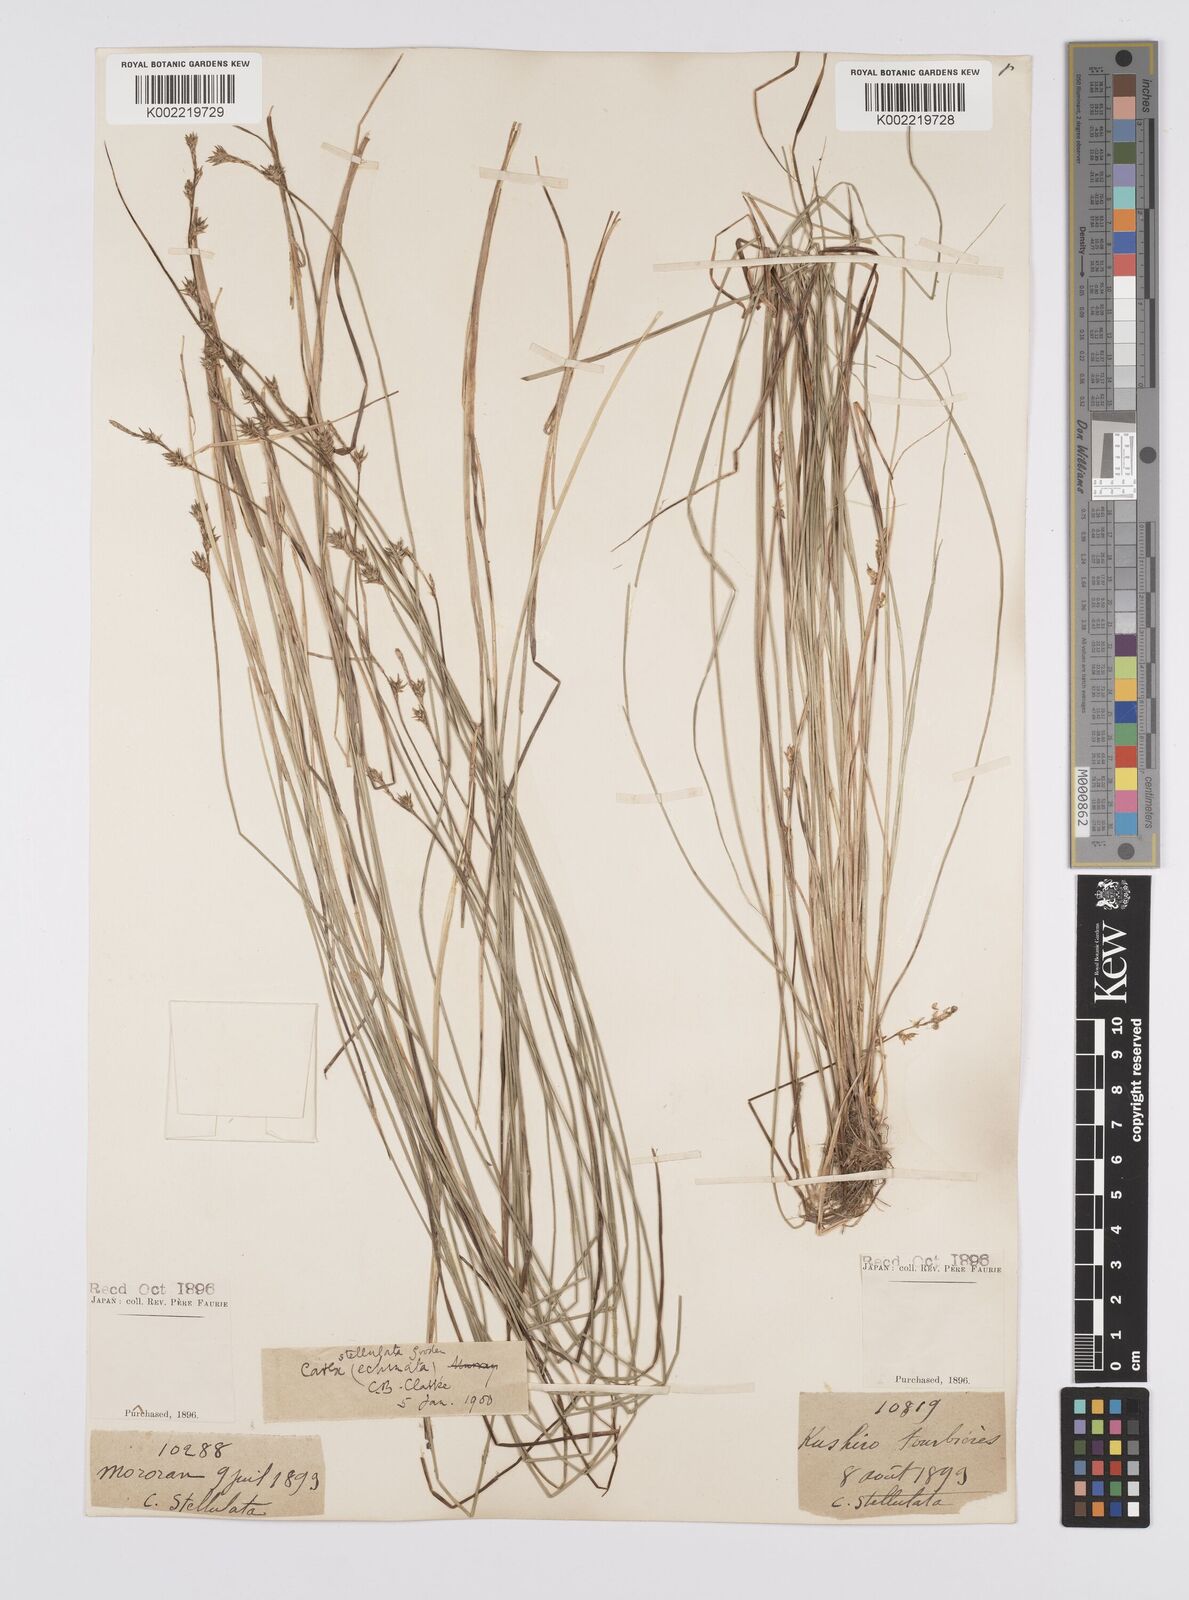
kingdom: Plantae
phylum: Tracheophyta
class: Liliopsida
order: Poales
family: Cyperaceae
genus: Carex
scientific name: Carex echinata
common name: Star sedge
